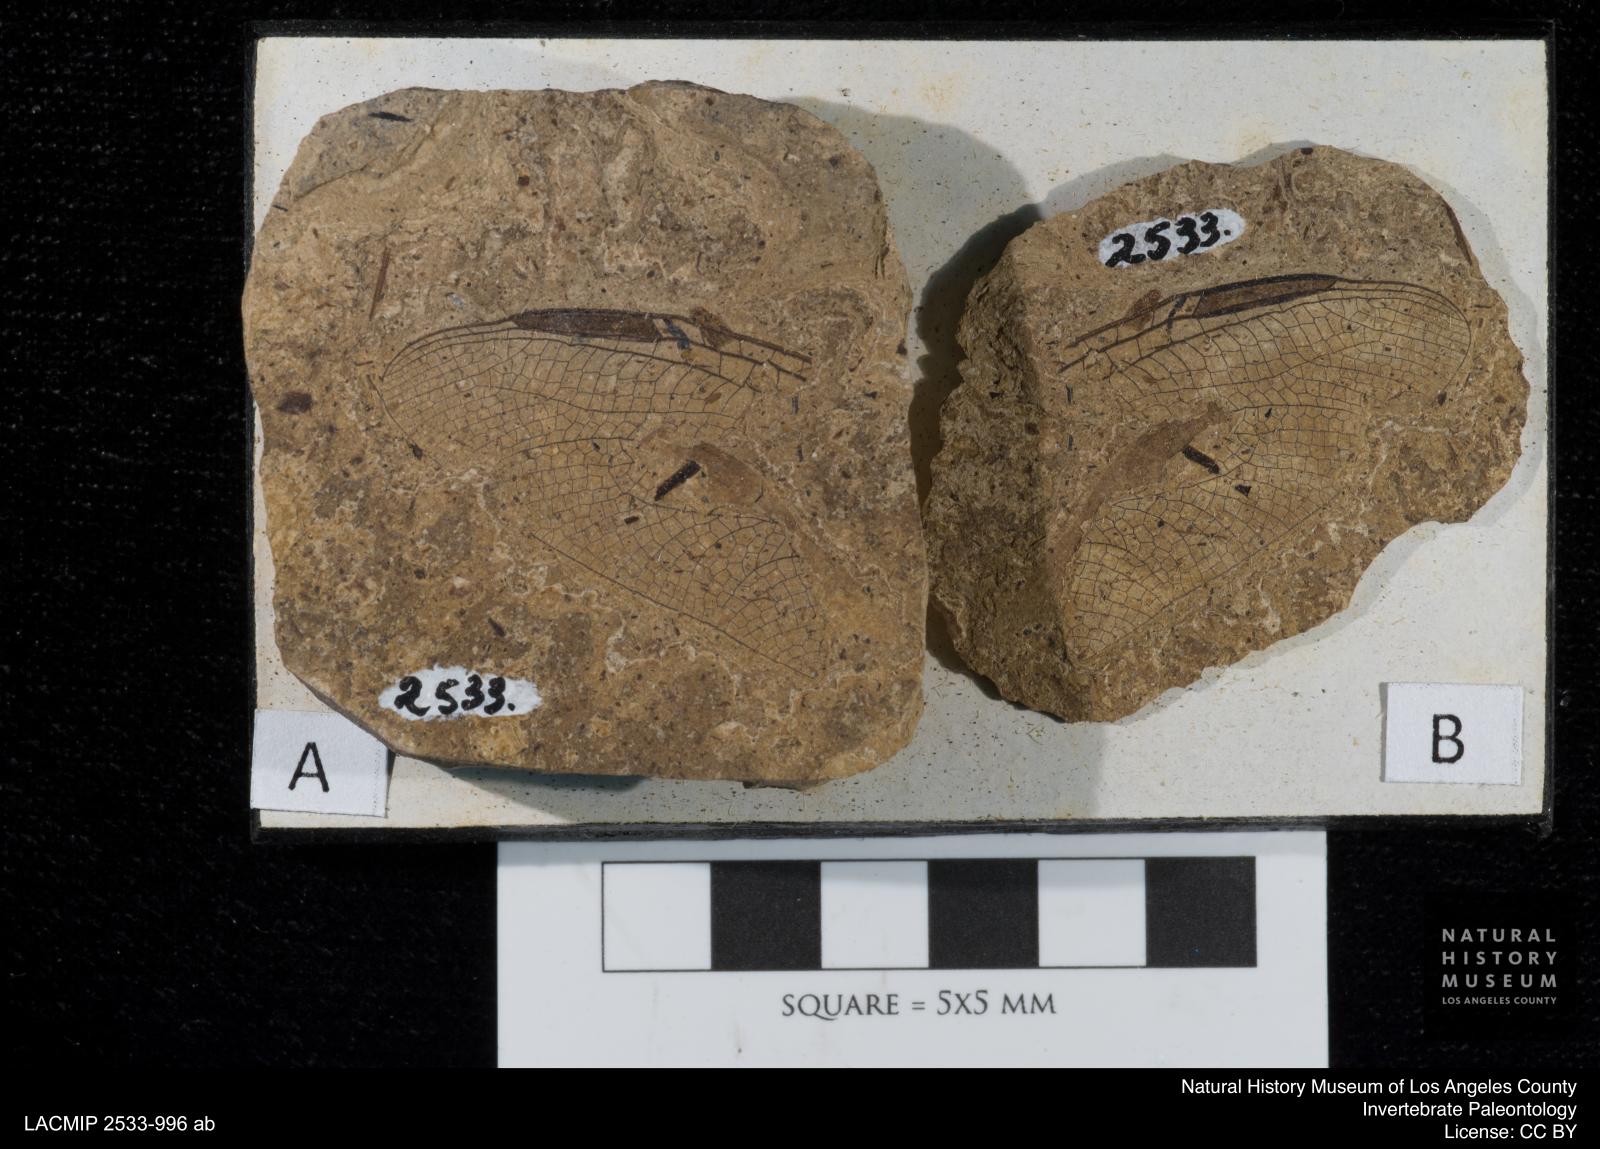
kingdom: Animalia
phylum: Arthropoda
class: Insecta
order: Odonata
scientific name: Odonata
